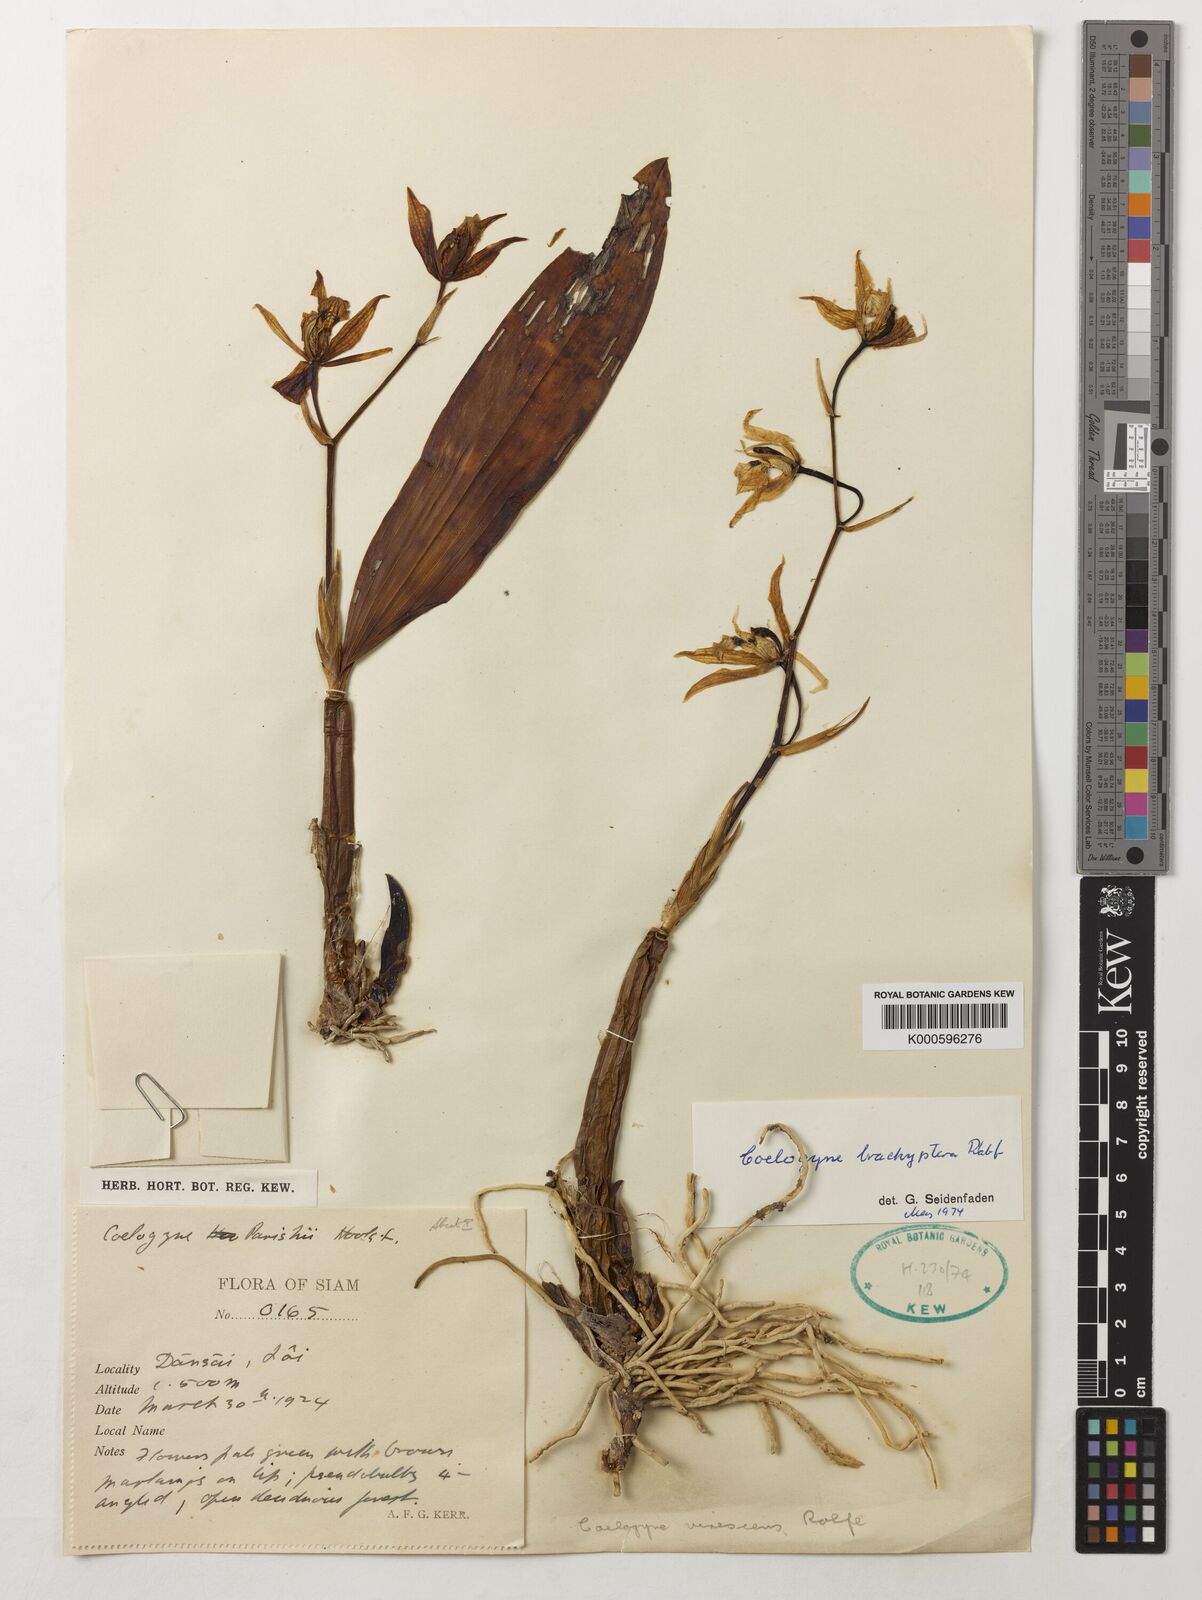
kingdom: Plantae
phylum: Tracheophyta
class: Liliopsida
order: Asparagales
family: Orchidaceae
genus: Coelogyne
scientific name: Coelogyne brachyptera
